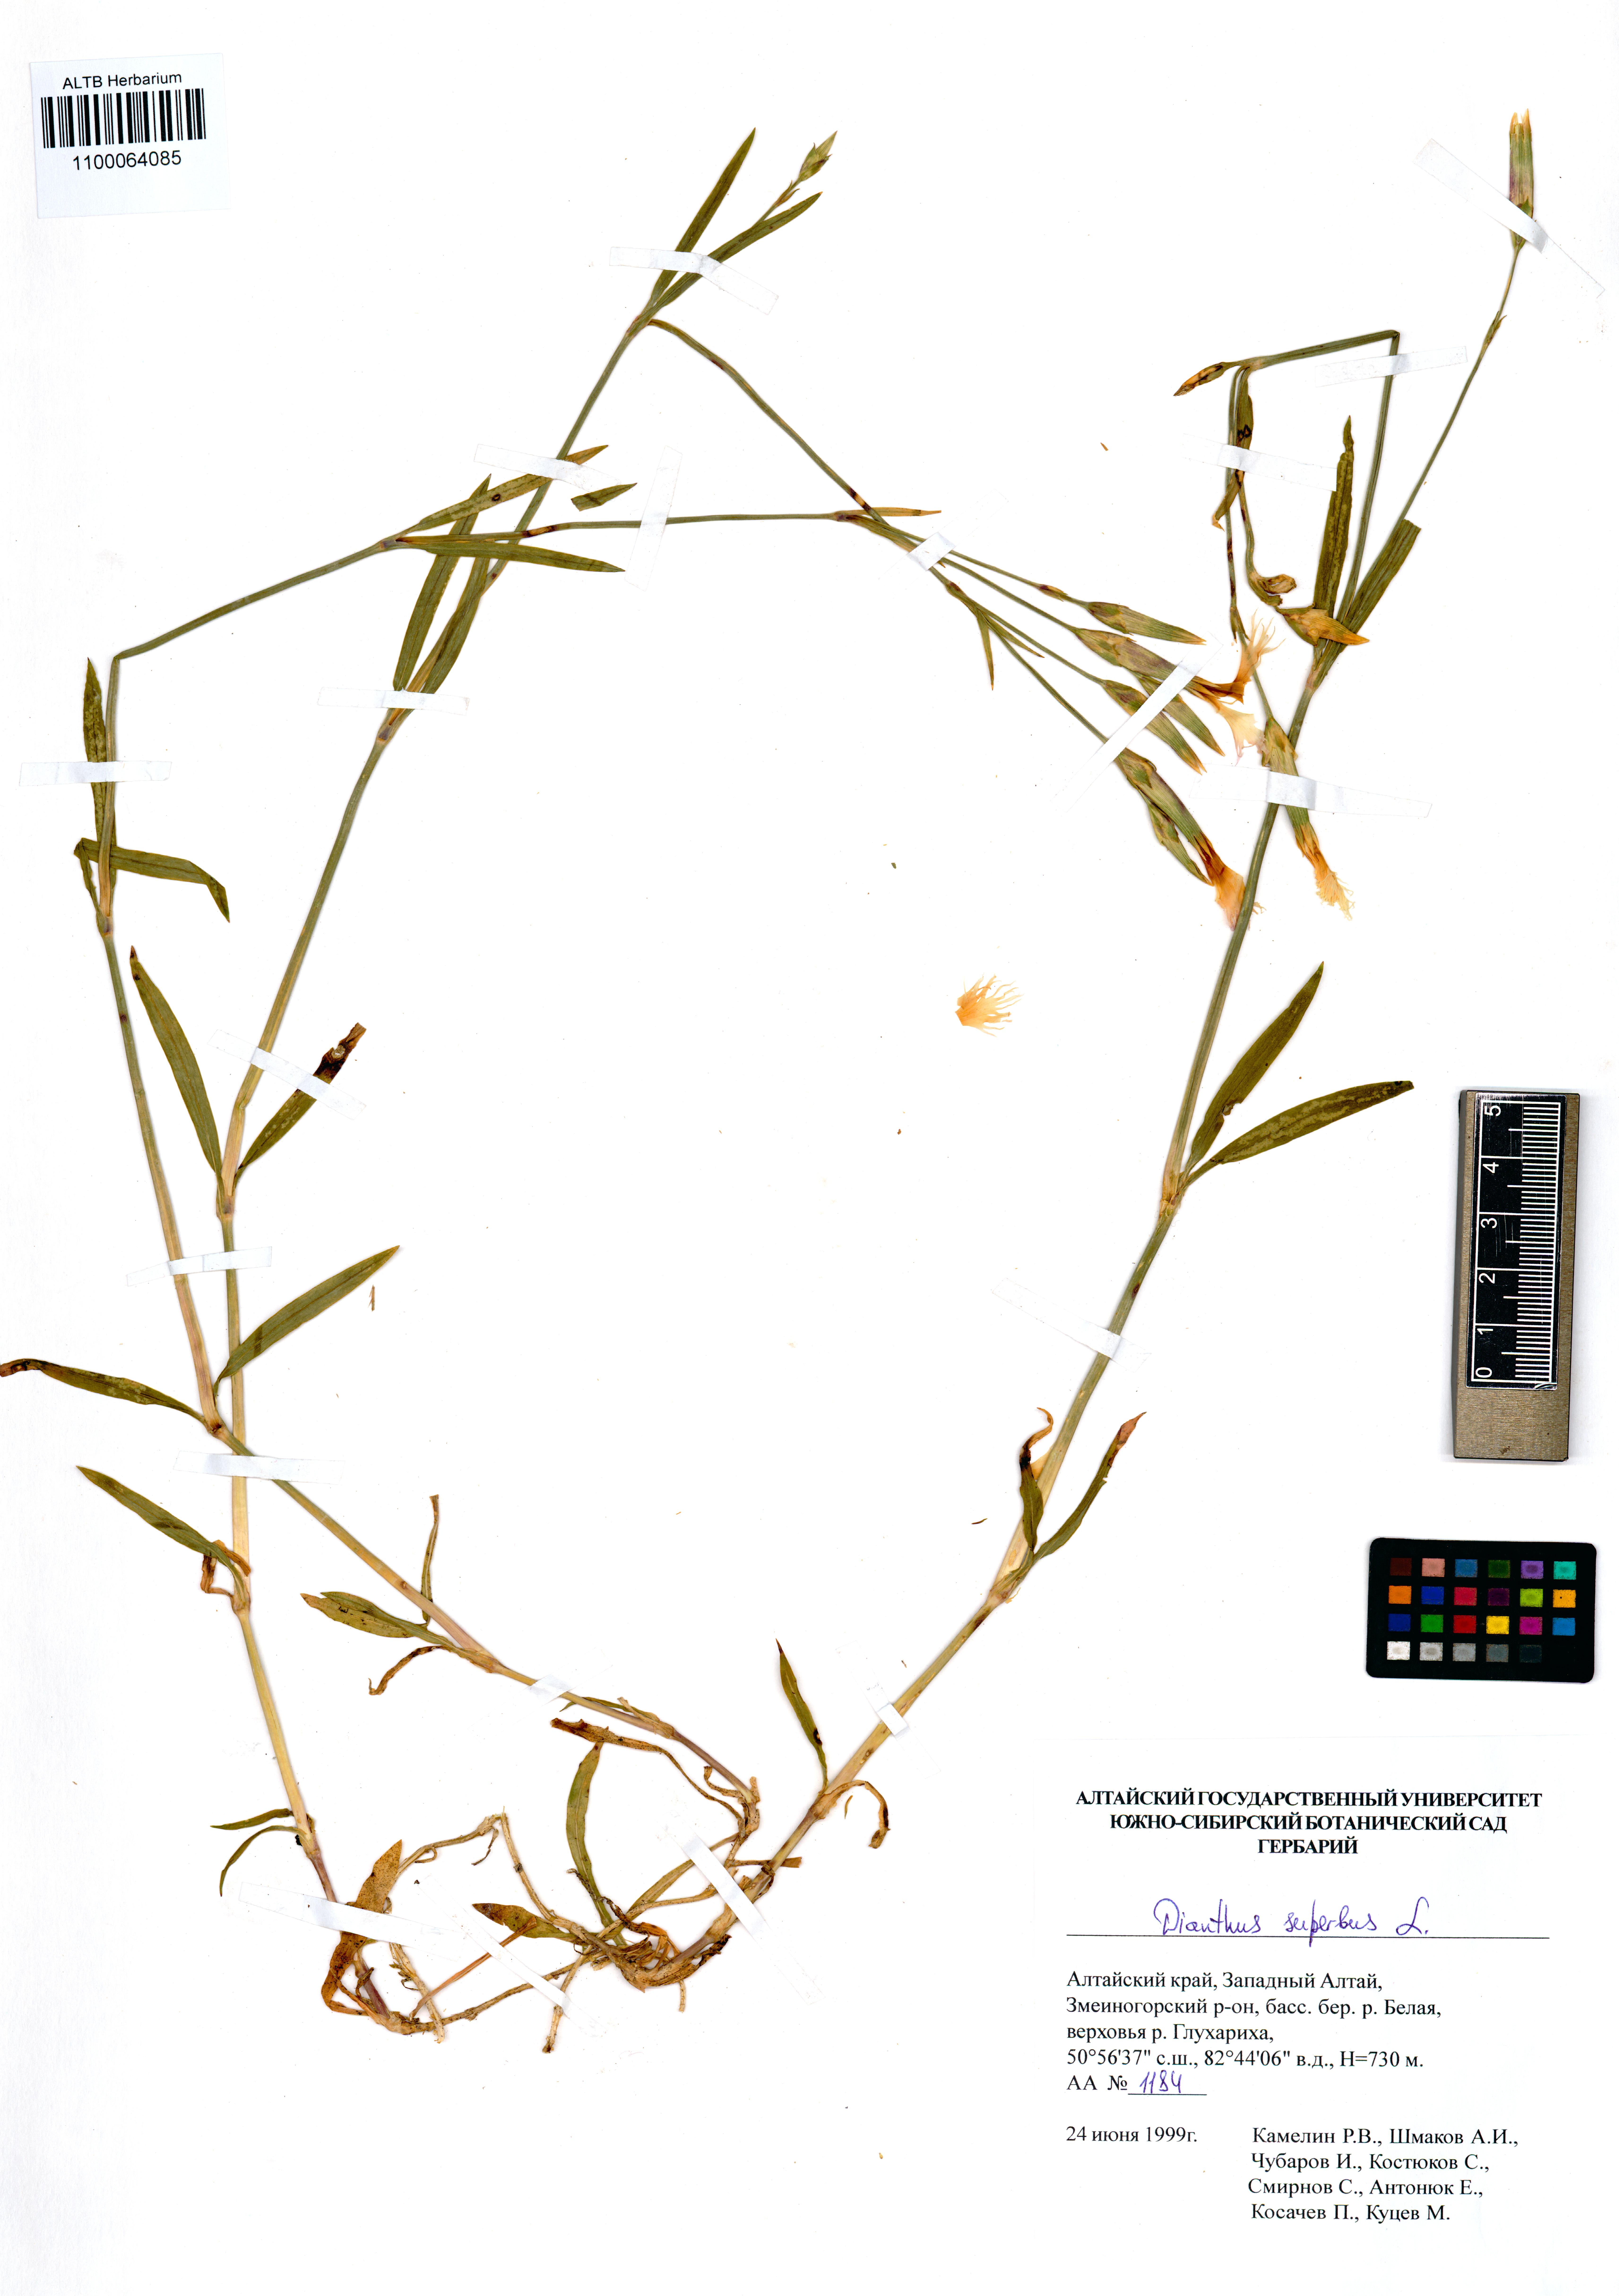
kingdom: Plantae
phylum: Tracheophyta
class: Magnoliopsida
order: Caryophyllales
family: Caryophyllaceae
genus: Dianthus
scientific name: Dianthus superbus
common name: Fringed pink
